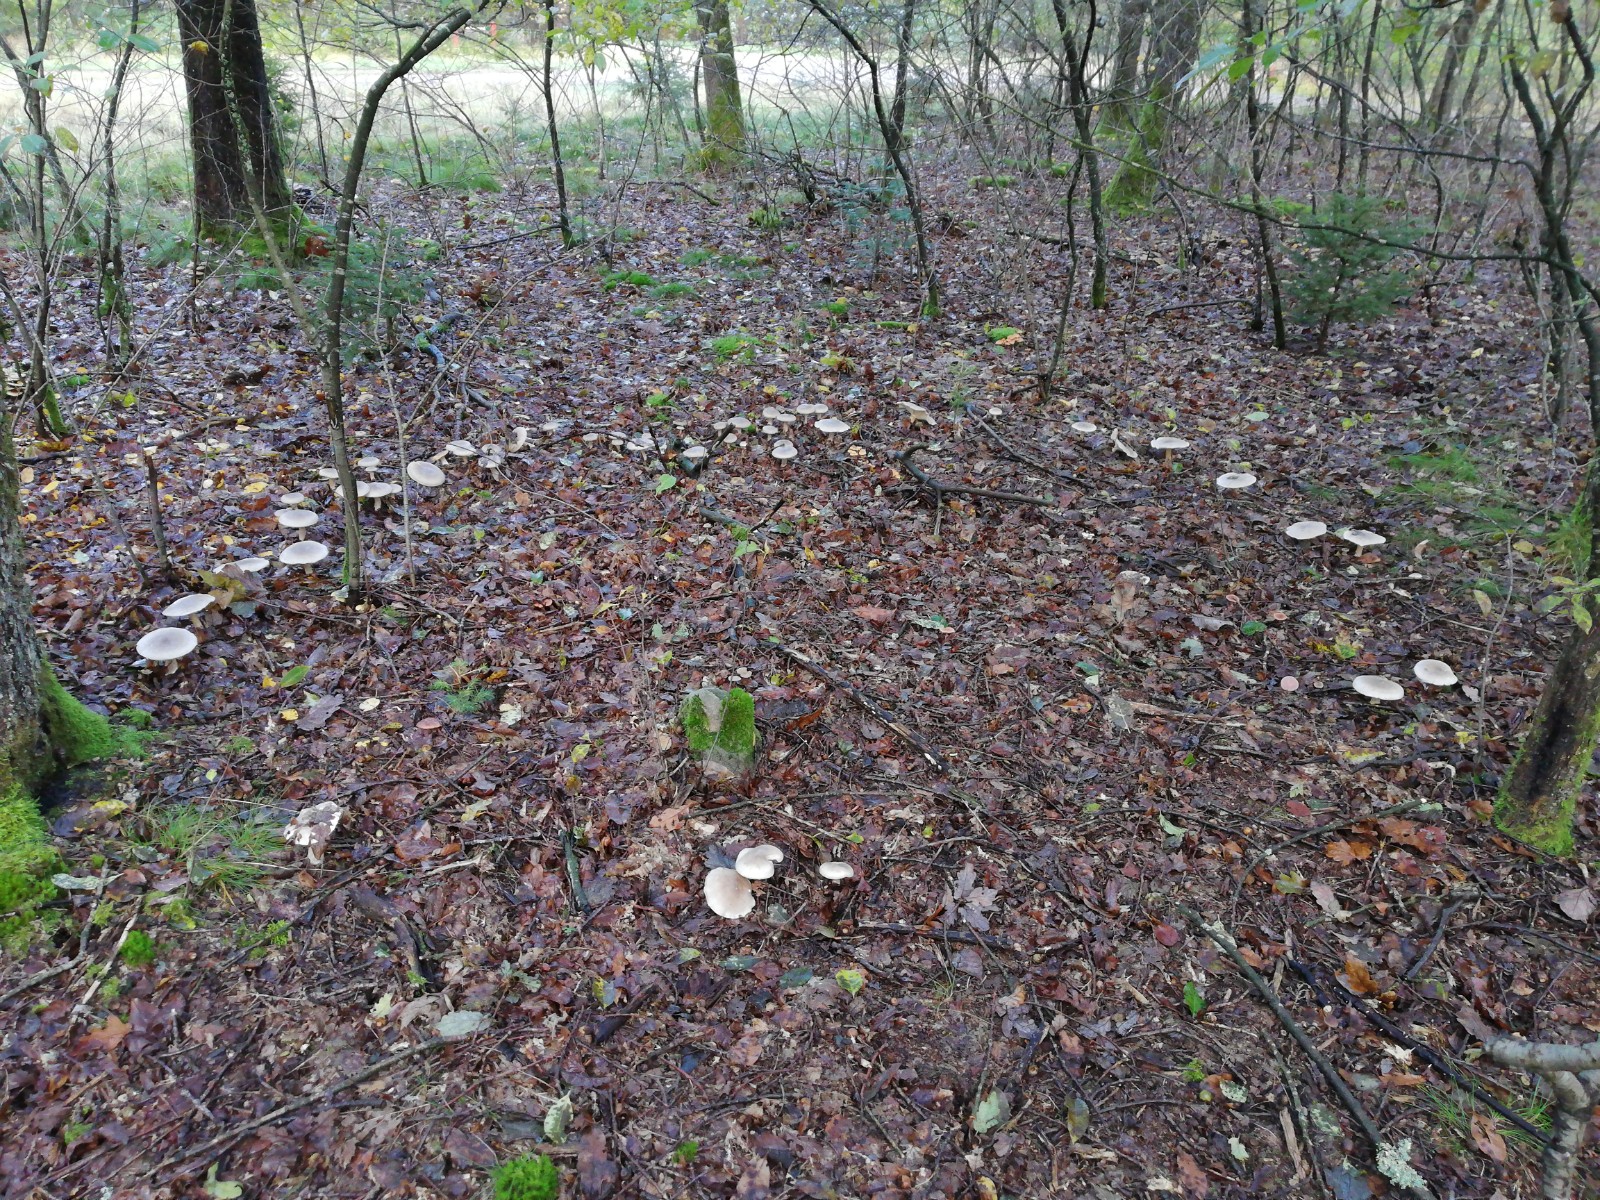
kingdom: Fungi
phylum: Basidiomycota
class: Agaricomycetes
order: Agaricales
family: Tricholomataceae
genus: Clitocybe
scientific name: Clitocybe nebularis
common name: tåge-tragthat
